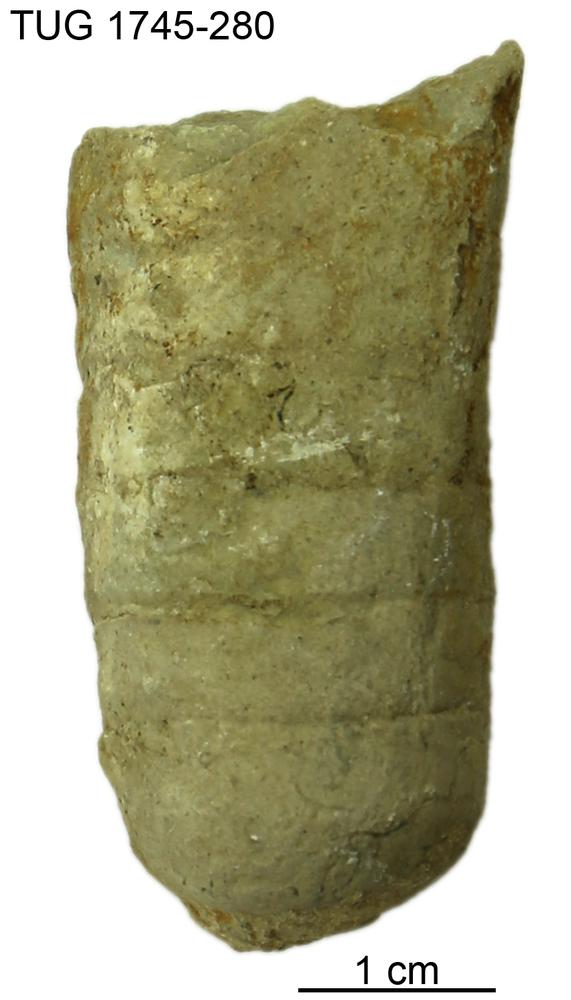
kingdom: Animalia
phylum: Mollusca
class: Cephalopoda
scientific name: Cephalopoda
